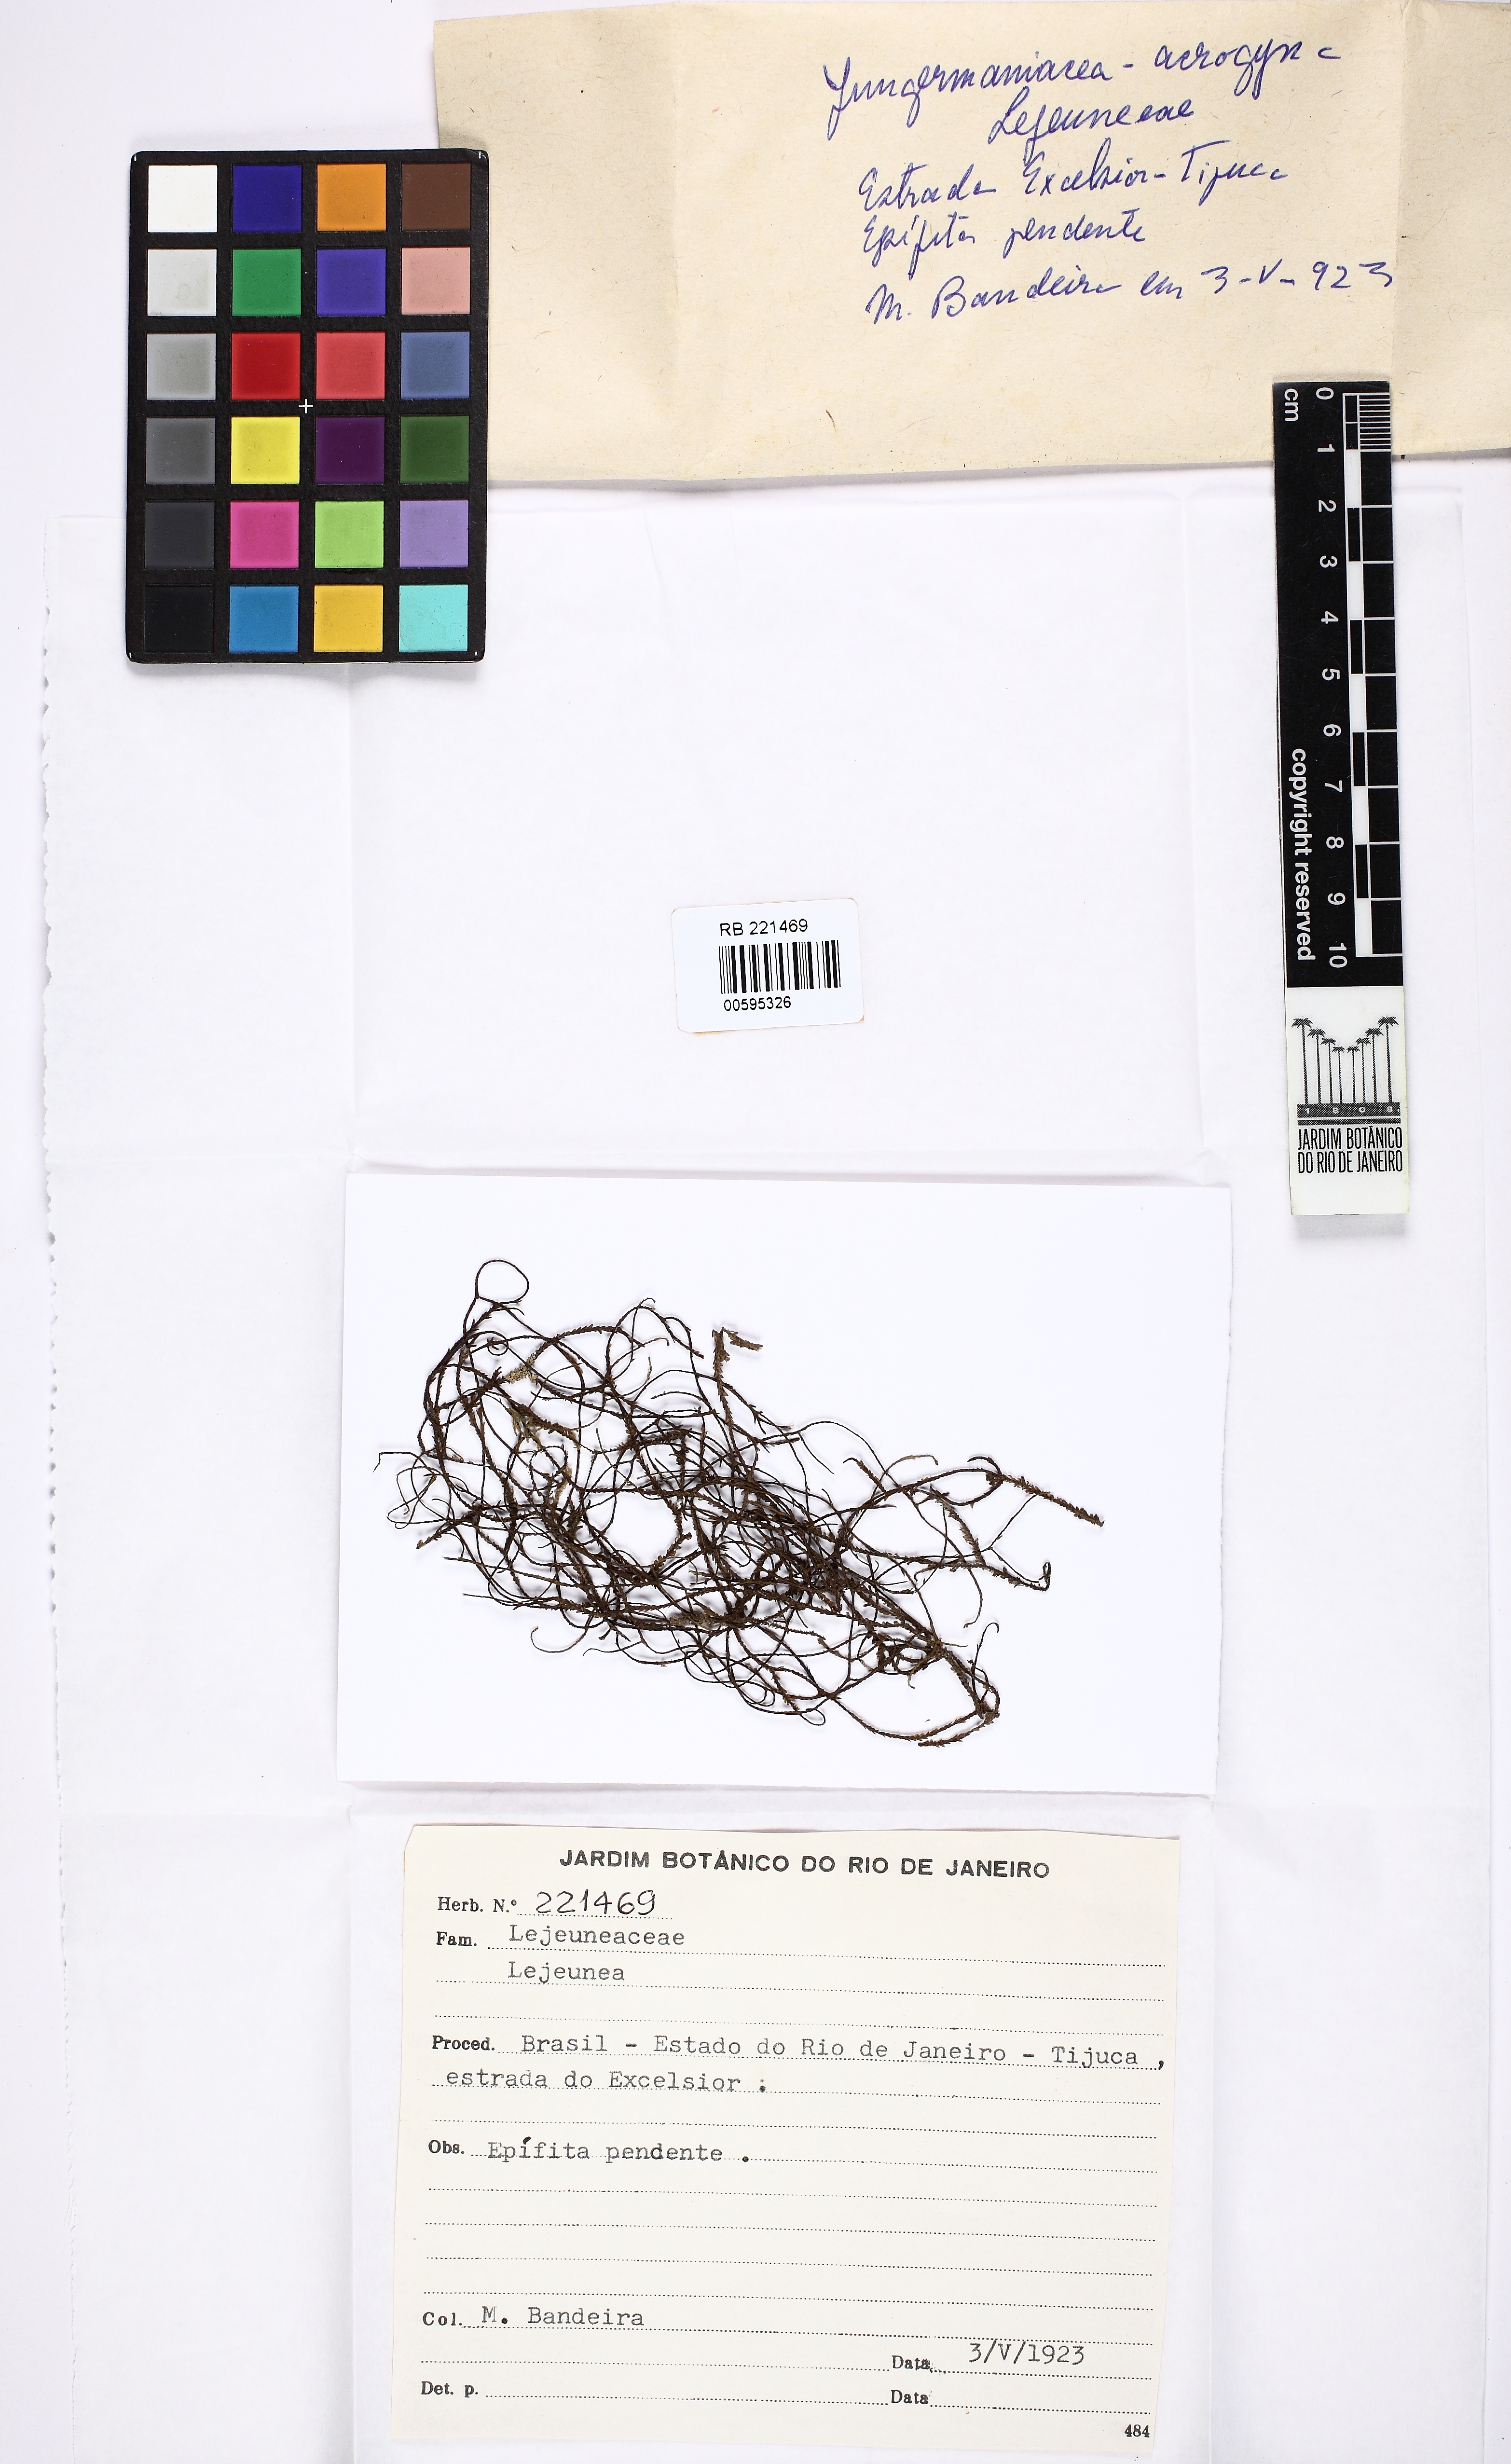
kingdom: Plantae
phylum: Marchantiophyta
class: Jungermanniopsida
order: Porellales
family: Lejeuneaceae
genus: Lejeunea
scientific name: Lejeunea
